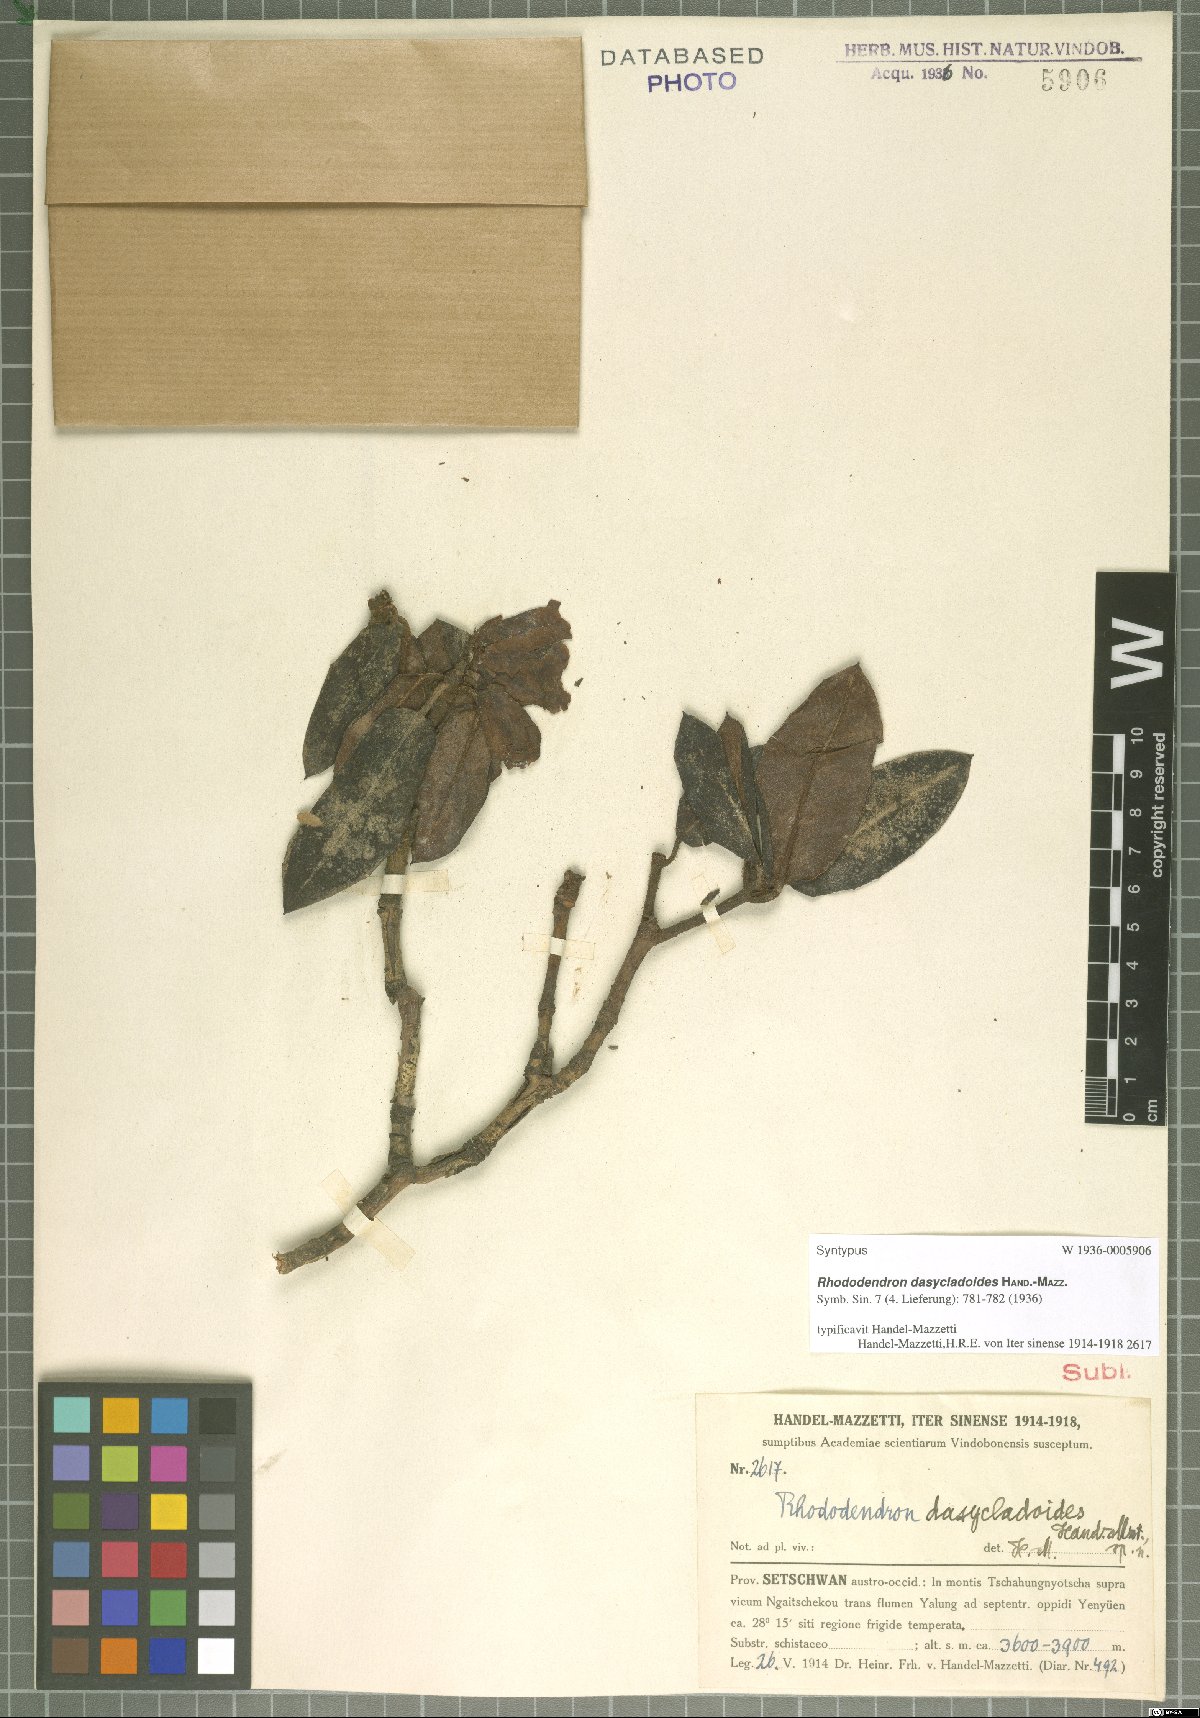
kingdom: Plantae
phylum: Tracheophyta
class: Magnoliopsida
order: Ericales
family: Ericaceae
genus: Rhododendron
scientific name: Rhododendron dasycladoides
